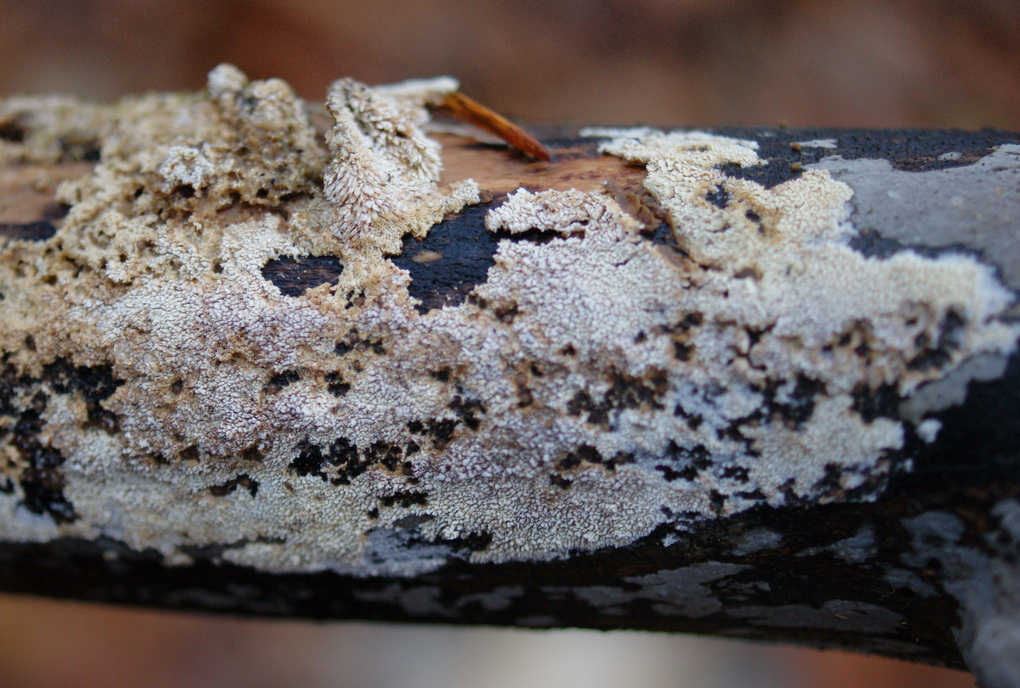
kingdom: Fungi
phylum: Basidiomycota
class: Agaricomycetes
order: Hymenochaetales
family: Schizoporaceae
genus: Schizopora
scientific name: Schizopora paradoxa
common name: hvid tandsvamp
